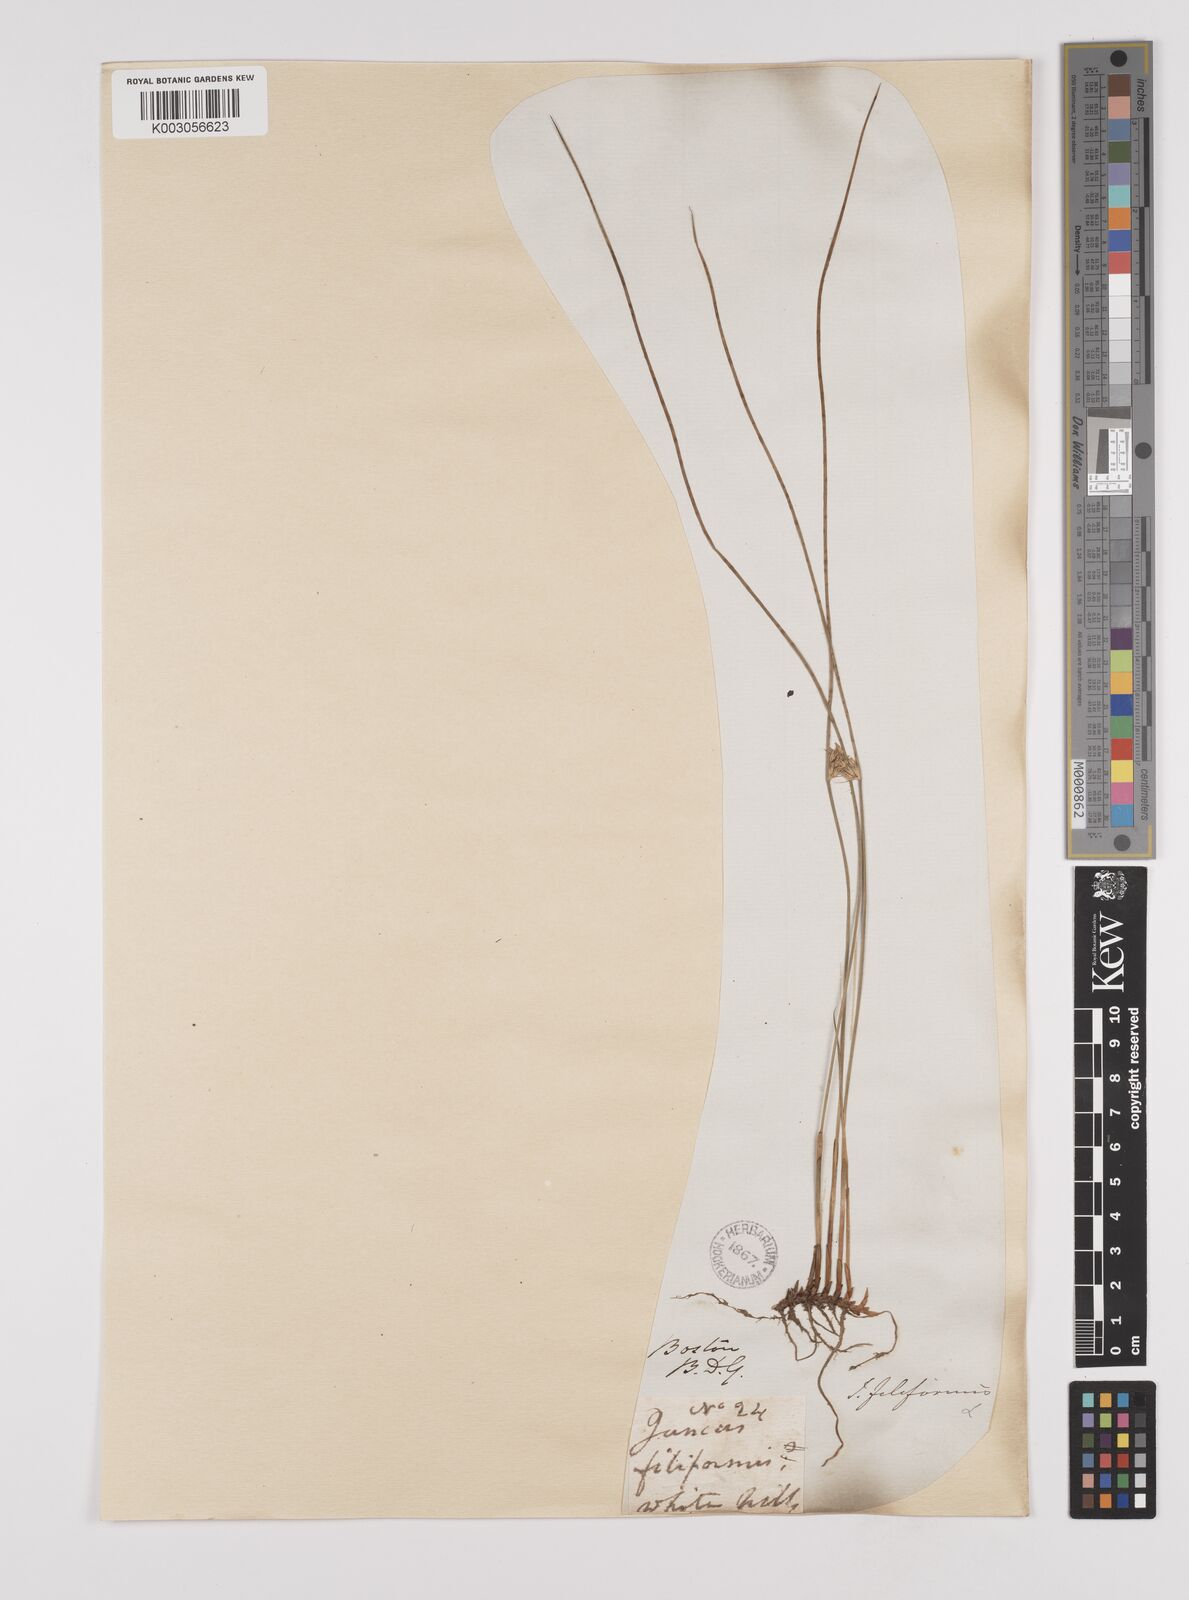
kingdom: Plantae
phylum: Tracheophyta
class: Liliopsida
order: Poales
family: Juncaceae
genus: Juncus
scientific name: Juncus filiformis
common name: Thread rush
